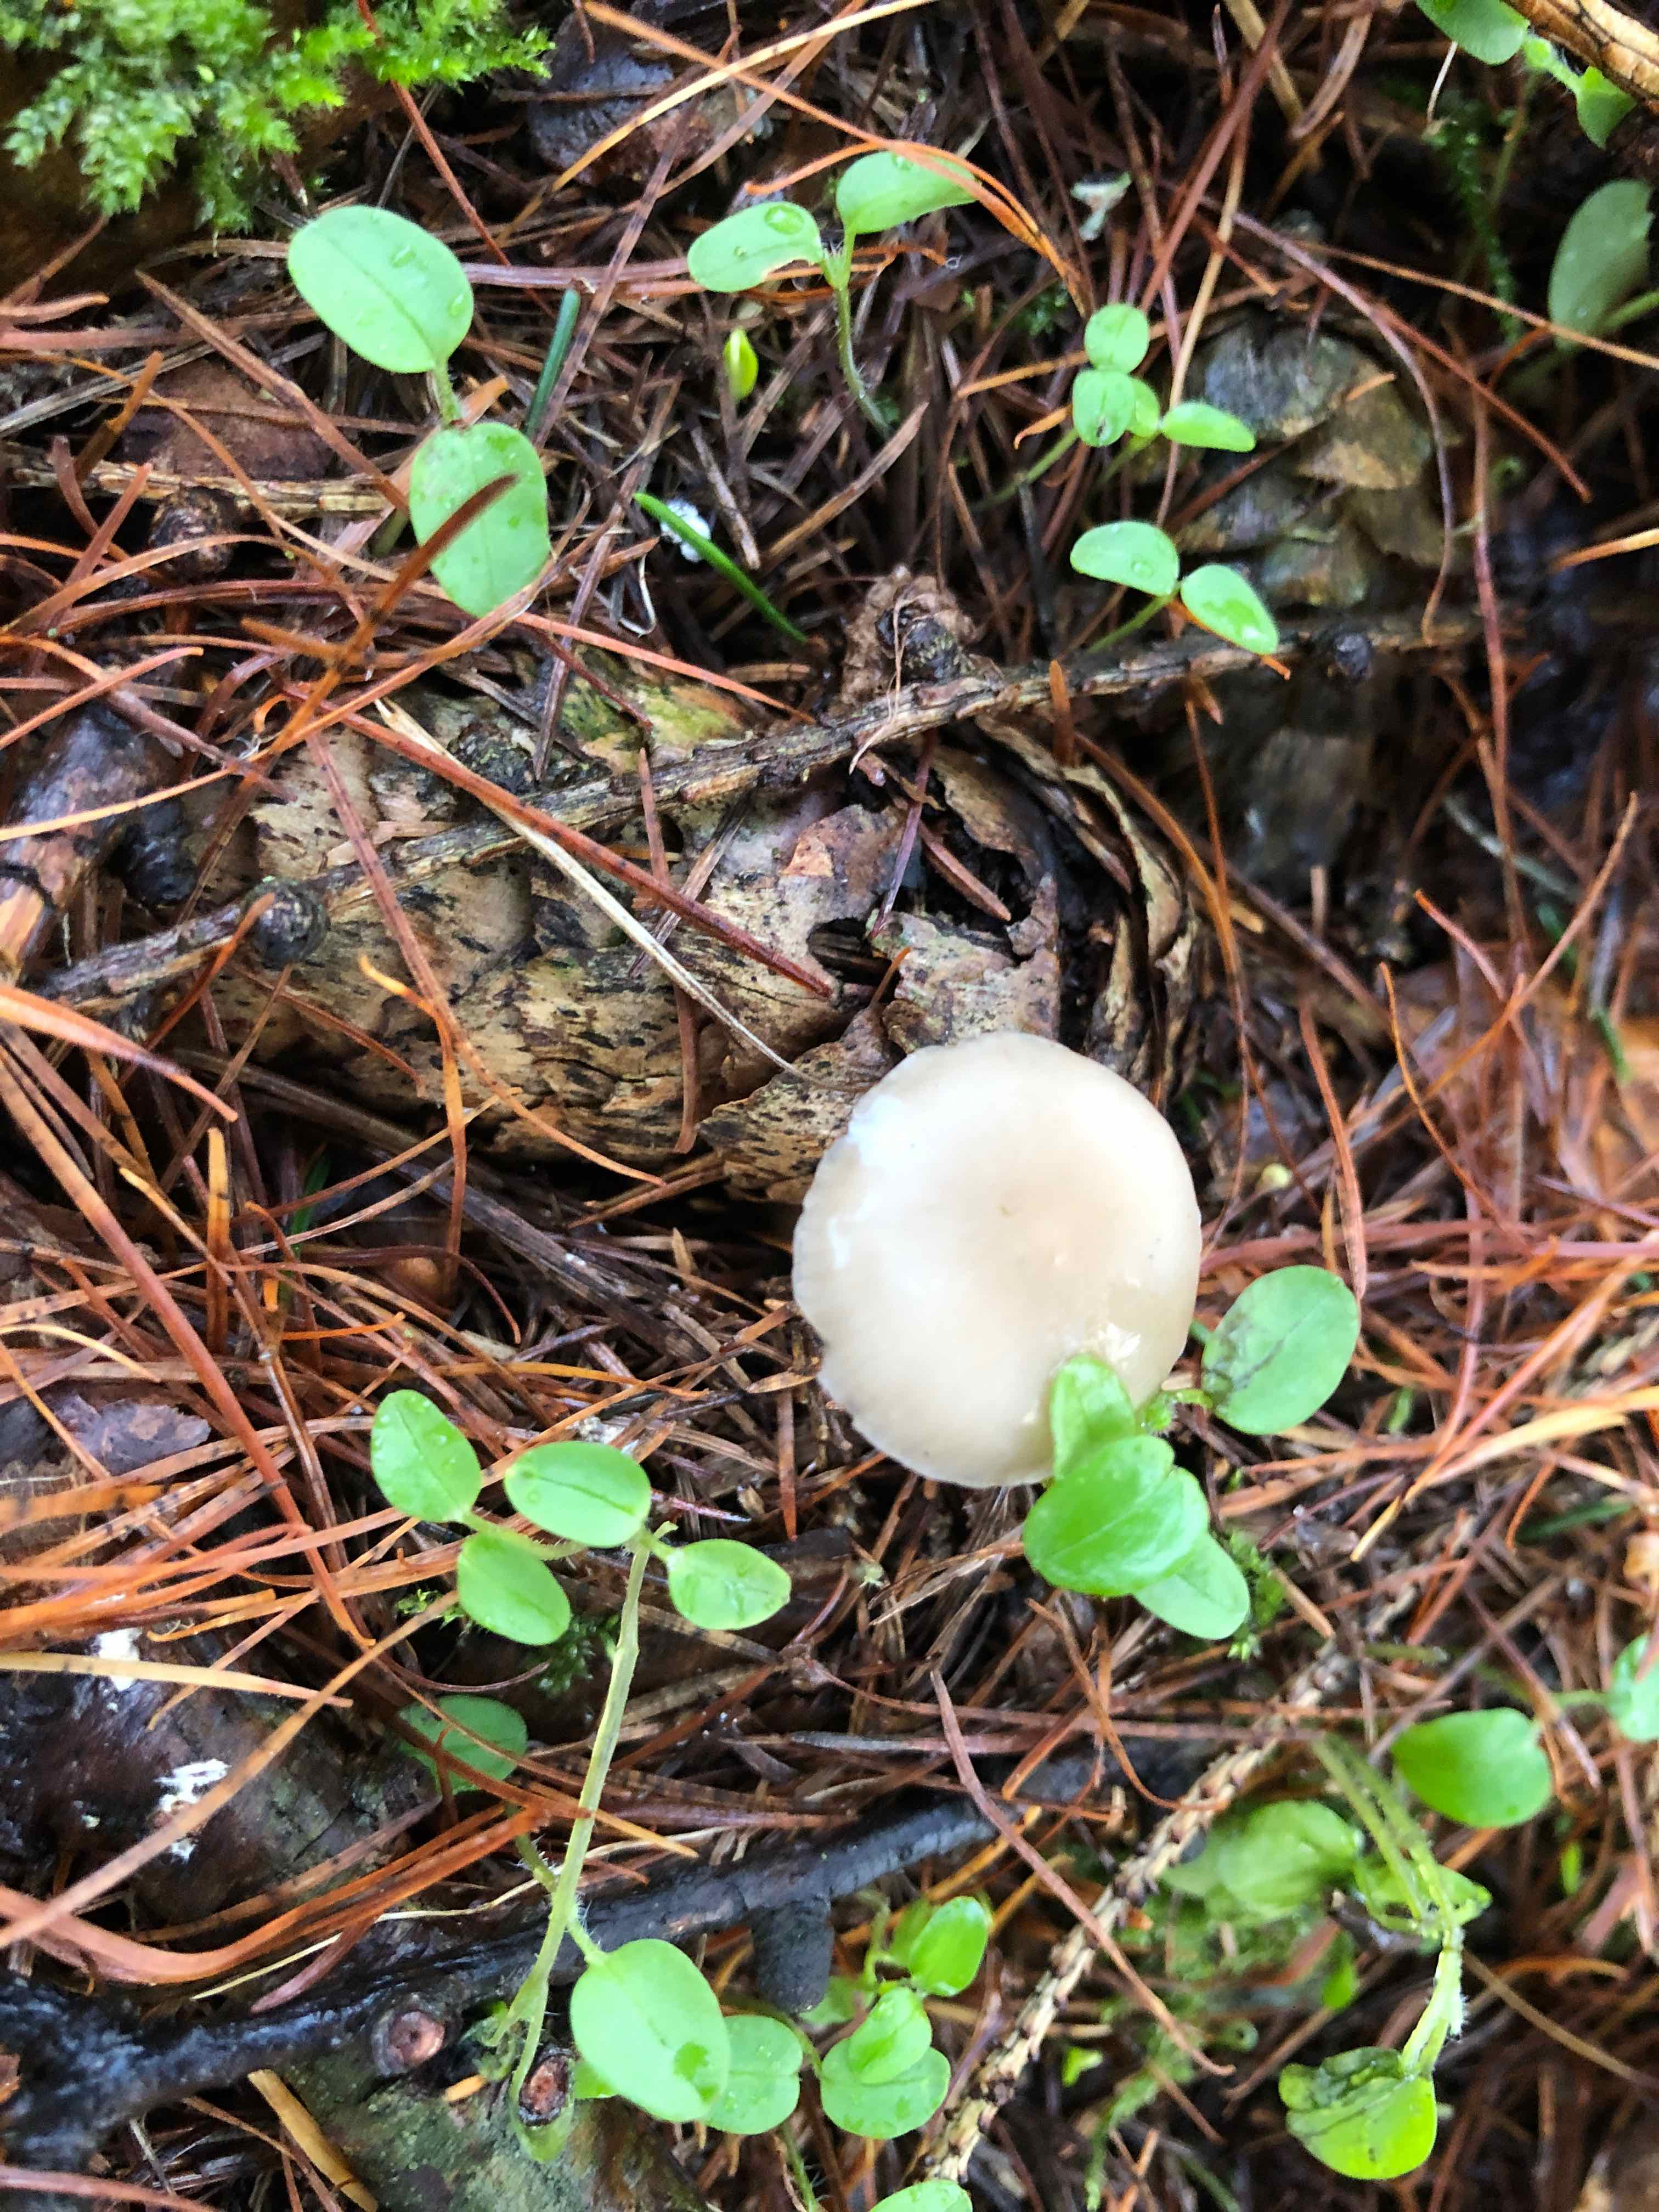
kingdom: Fungi
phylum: Basidiomycota
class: Agaricomycetes
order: Agaricales
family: Physalacriaceae
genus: Strobilurus
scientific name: Strobilurus esculentus
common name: gran-koglehat
